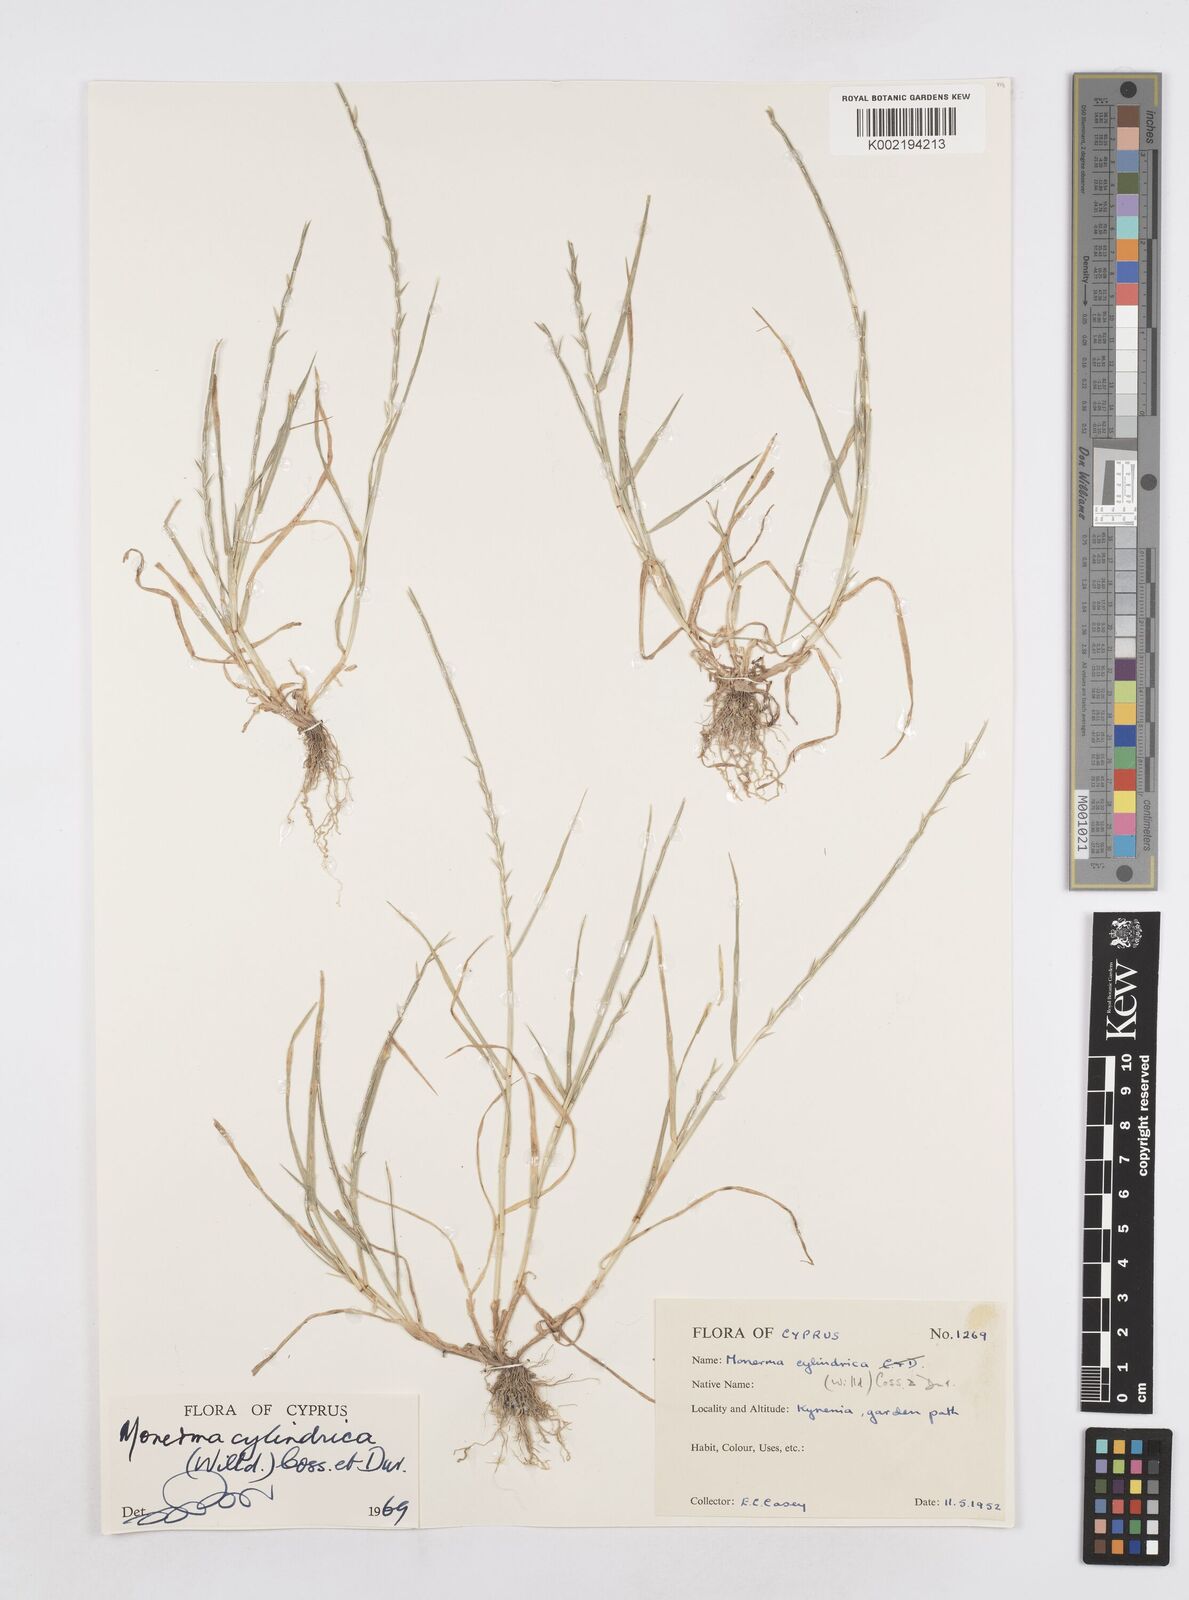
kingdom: Plantae
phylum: Tracheophyta
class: Liliopsida
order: Poales
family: Poaceae
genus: Parapholis
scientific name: Parapholis cylindrica
